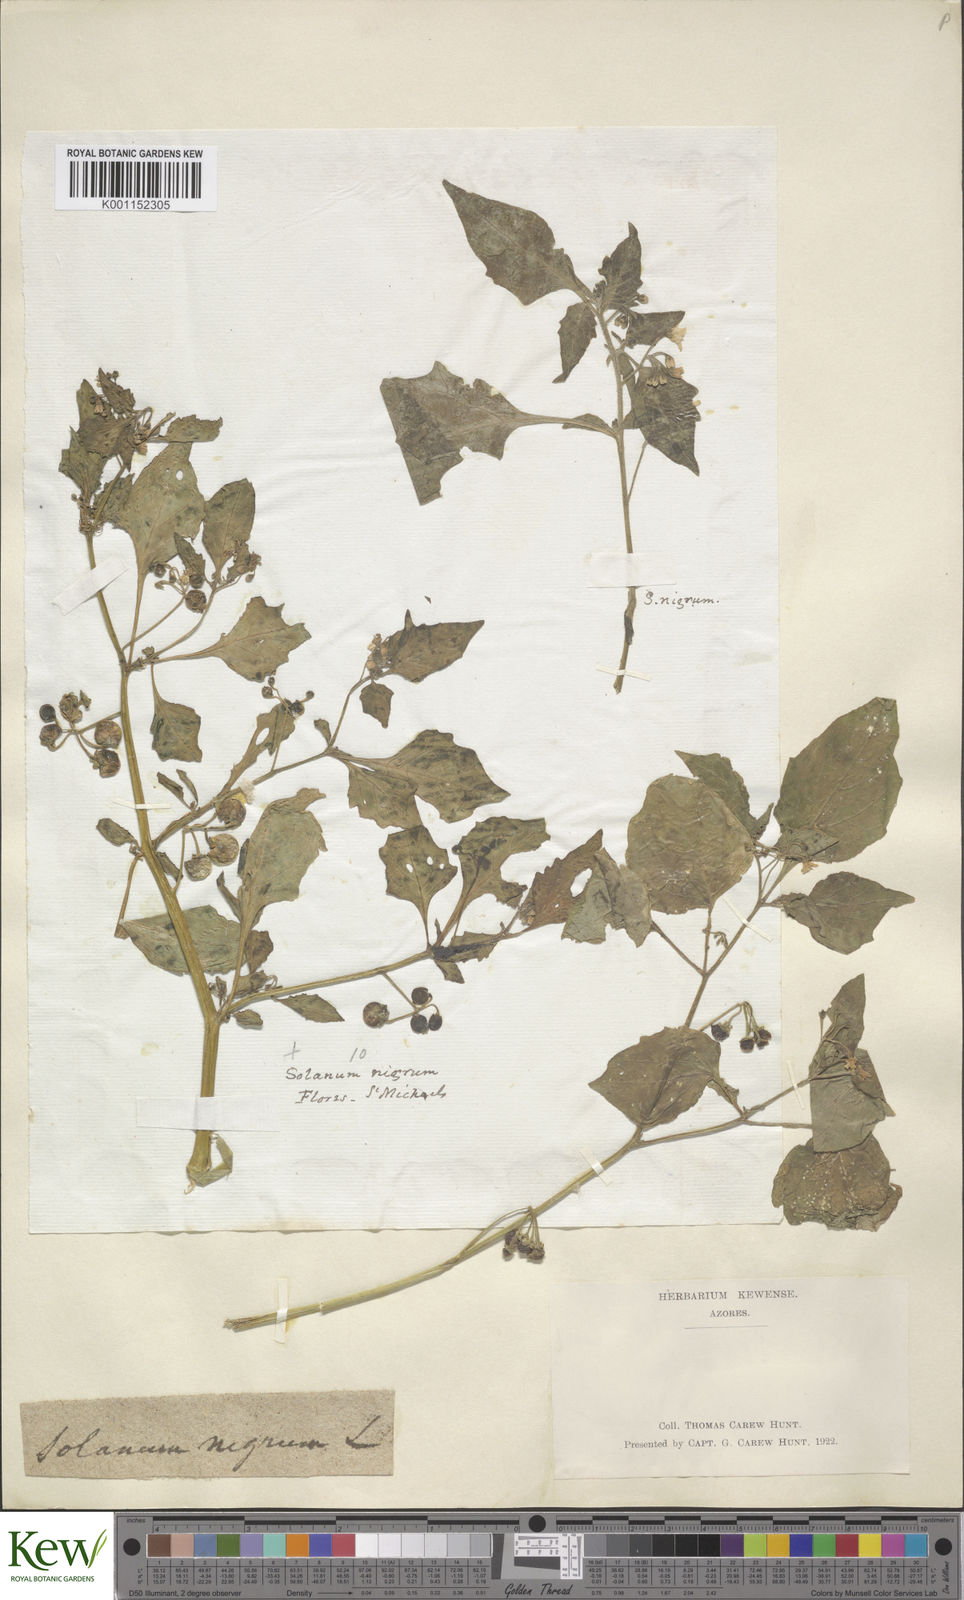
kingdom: Plantae
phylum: Tracheophyta
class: Magnoliopsida
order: Solanales
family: Solanaceae
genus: Solanum
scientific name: Solanum nigrum
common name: Black nightshade
